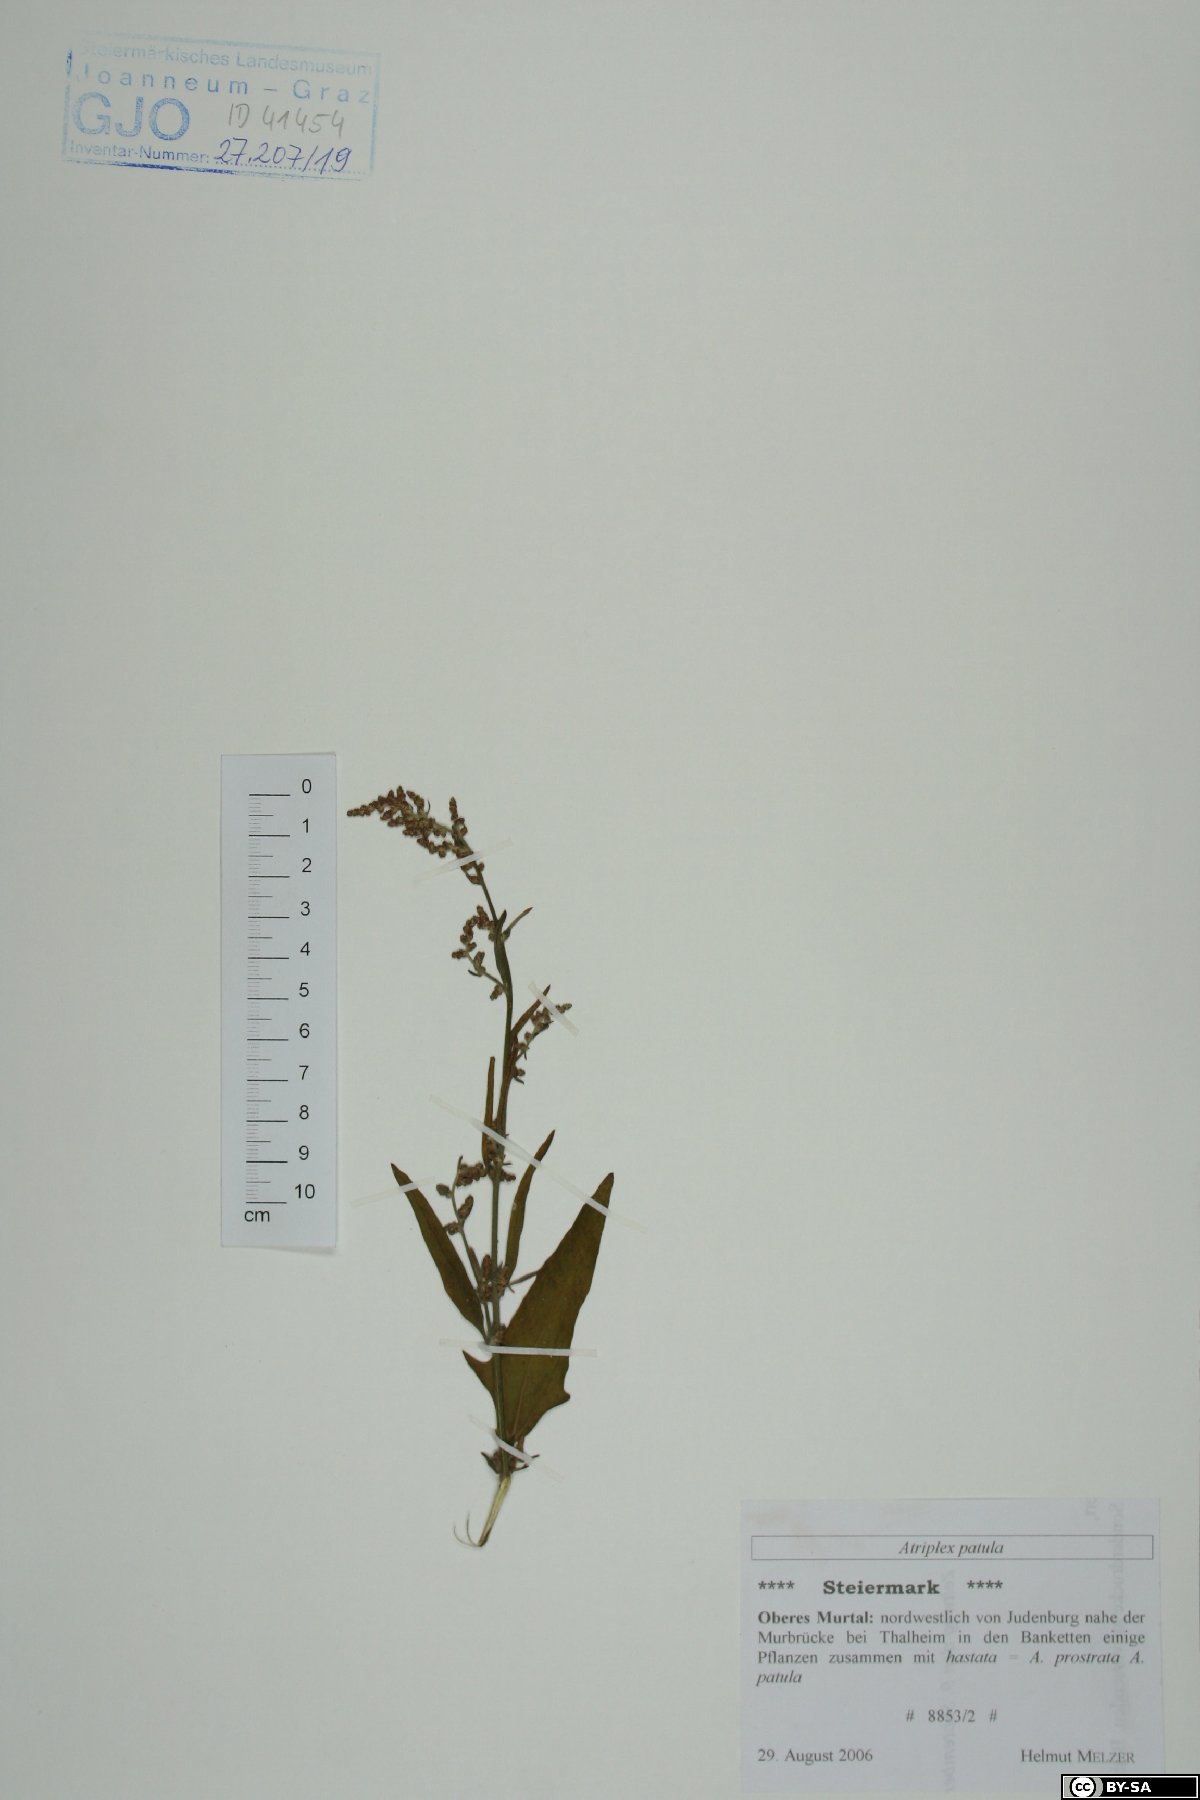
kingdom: Plantae
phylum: Tracheophyta
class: Magnoliopsida
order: Caryophyllales
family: Amaranthaceae
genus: Atriplex
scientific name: Atriplex patula
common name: Common orache
